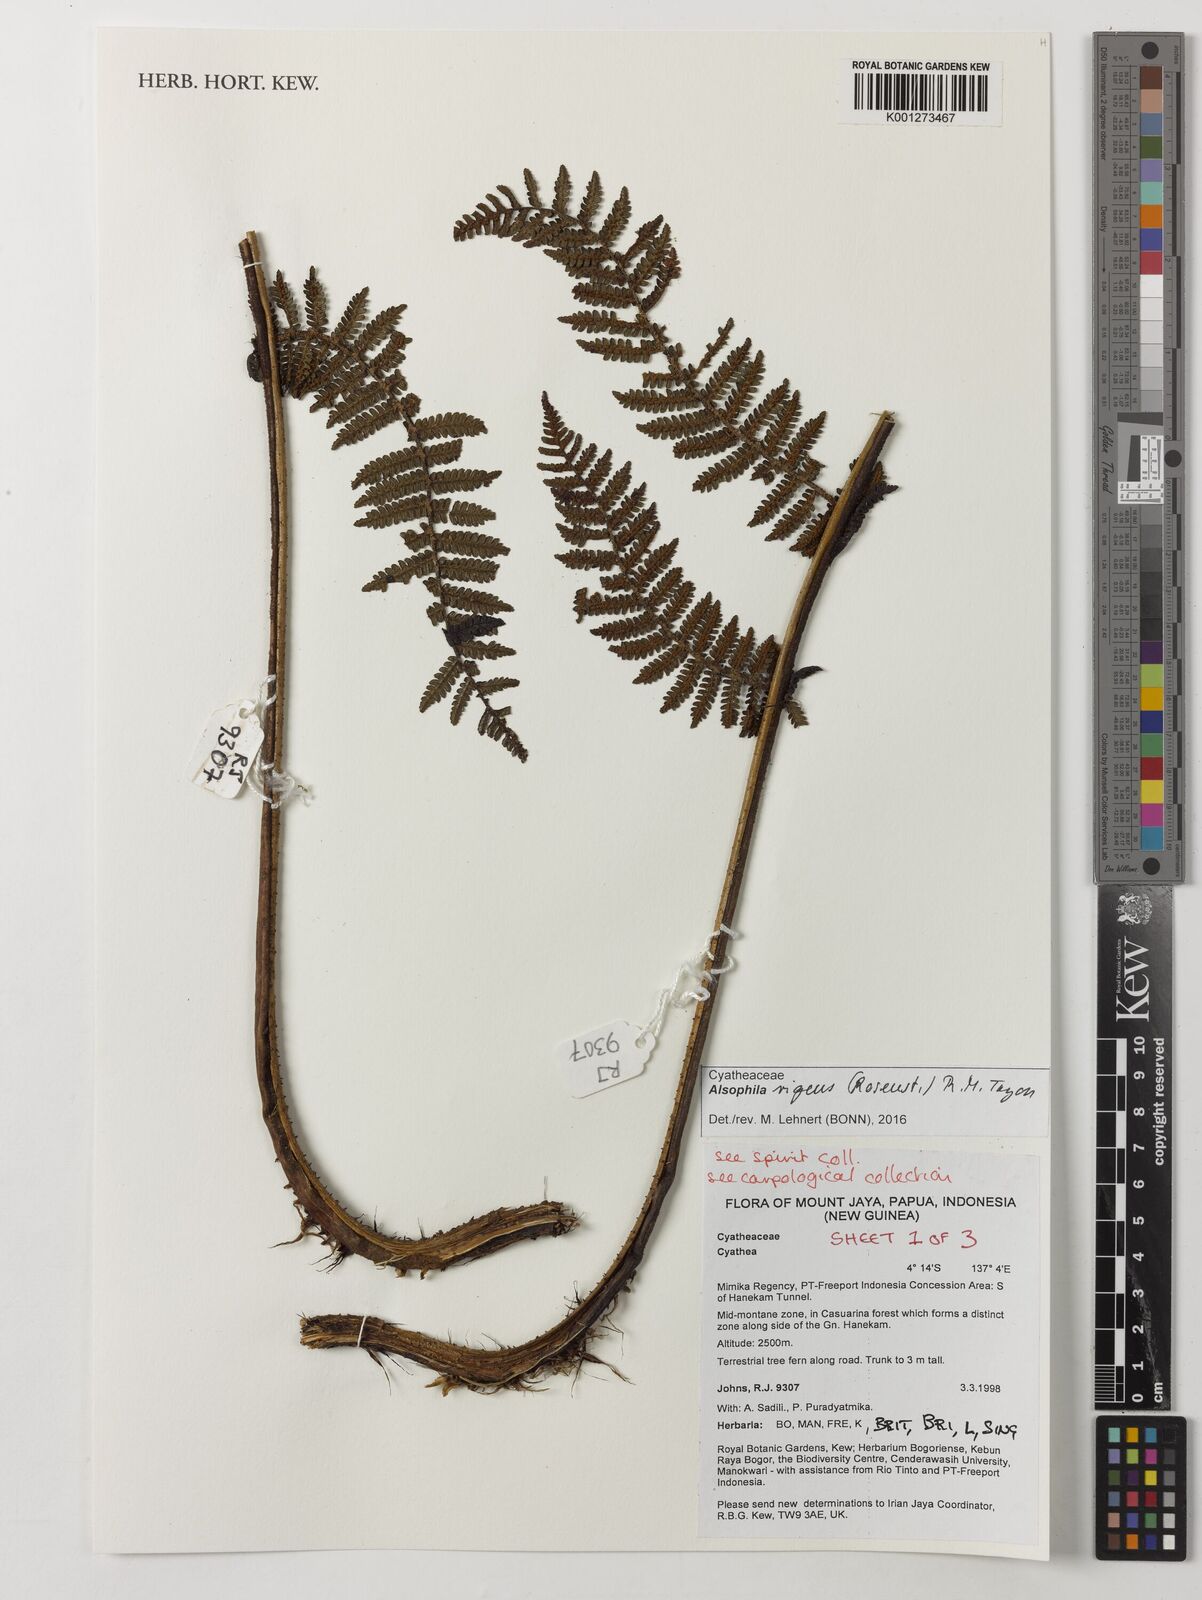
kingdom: Plantae
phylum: Tracheophyta
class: Polypodiopsida
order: Cyatheales
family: Cyatheaceae
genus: Alsophila
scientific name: Alsophila rigens
